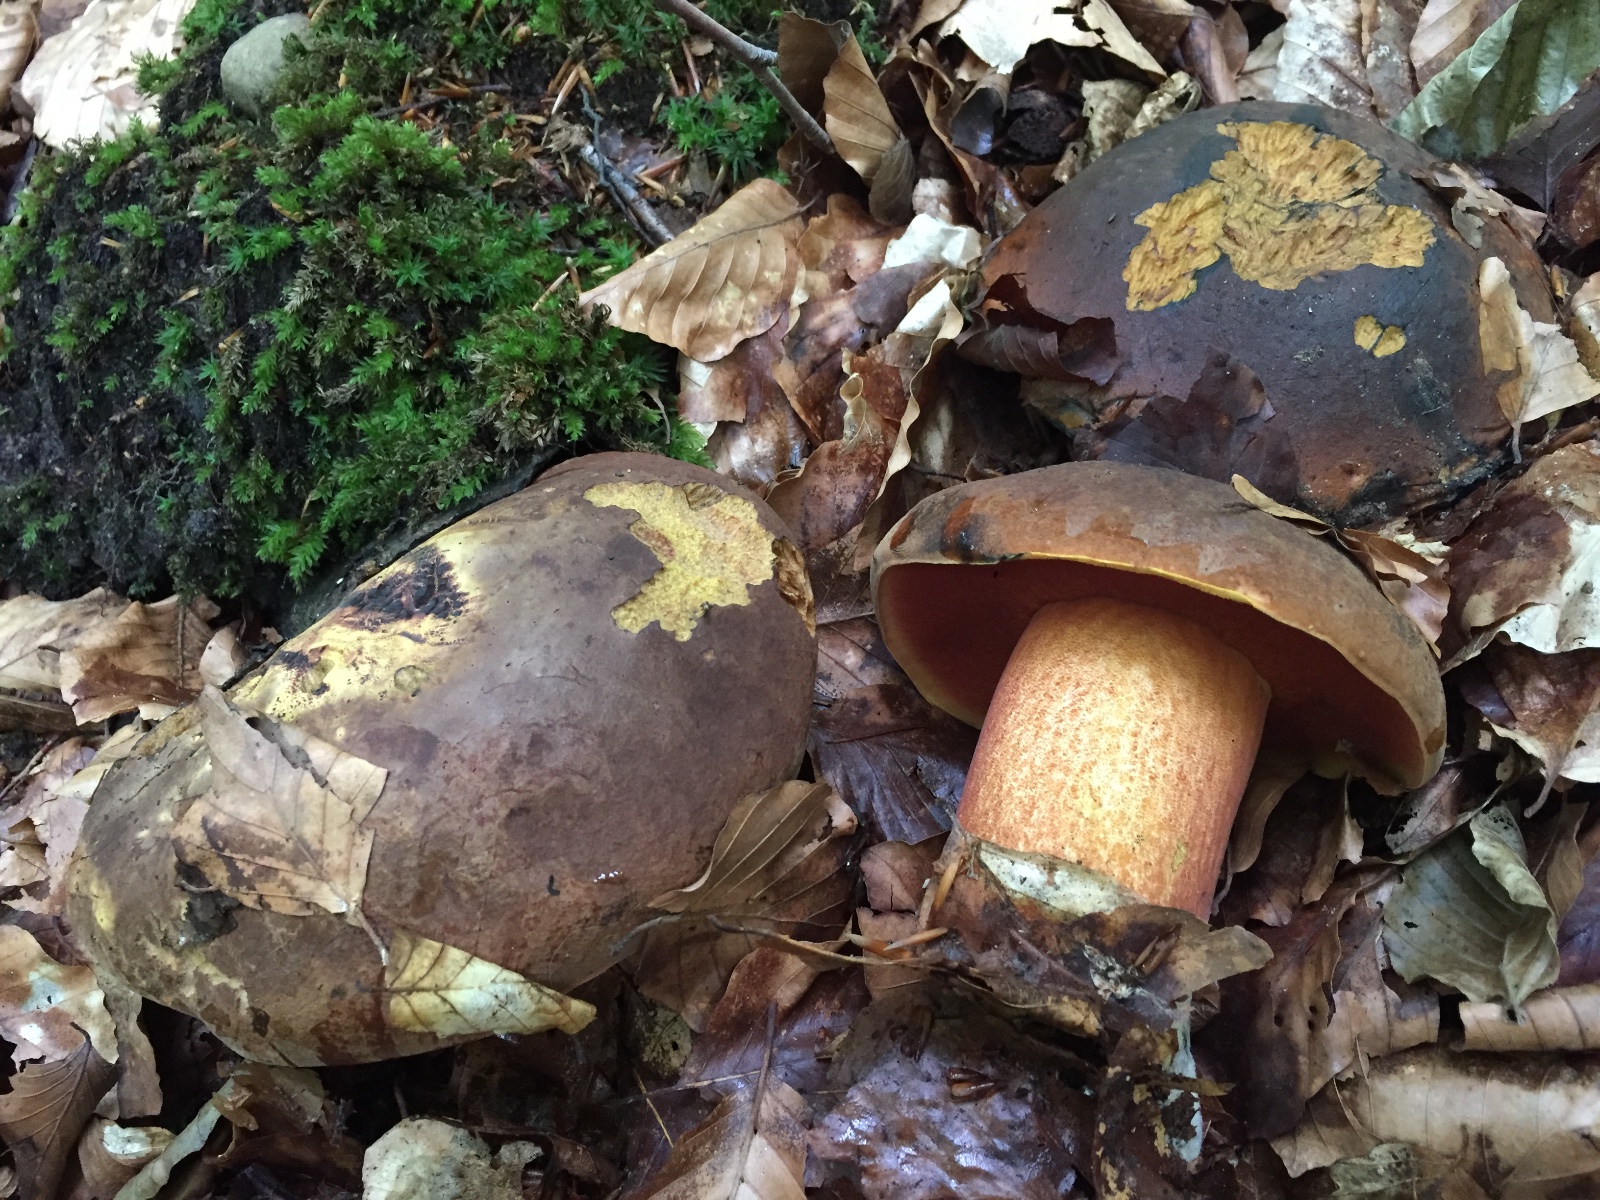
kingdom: Fungi
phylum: Basidiomycota
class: Agaricomycetes
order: Boletales
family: Boletaceae
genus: Neoboletus
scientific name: Neoboletus erythropus
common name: punktstokket indigorørhat
